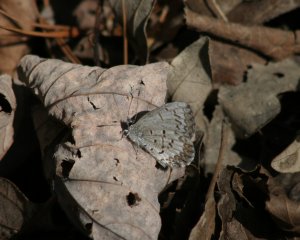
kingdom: Animalia
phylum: Arthropoda
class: Insecta
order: Lepidoptera
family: Lycaenidae
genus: Celastrina
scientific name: Celastrina lucia
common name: Northern Spring Azure
